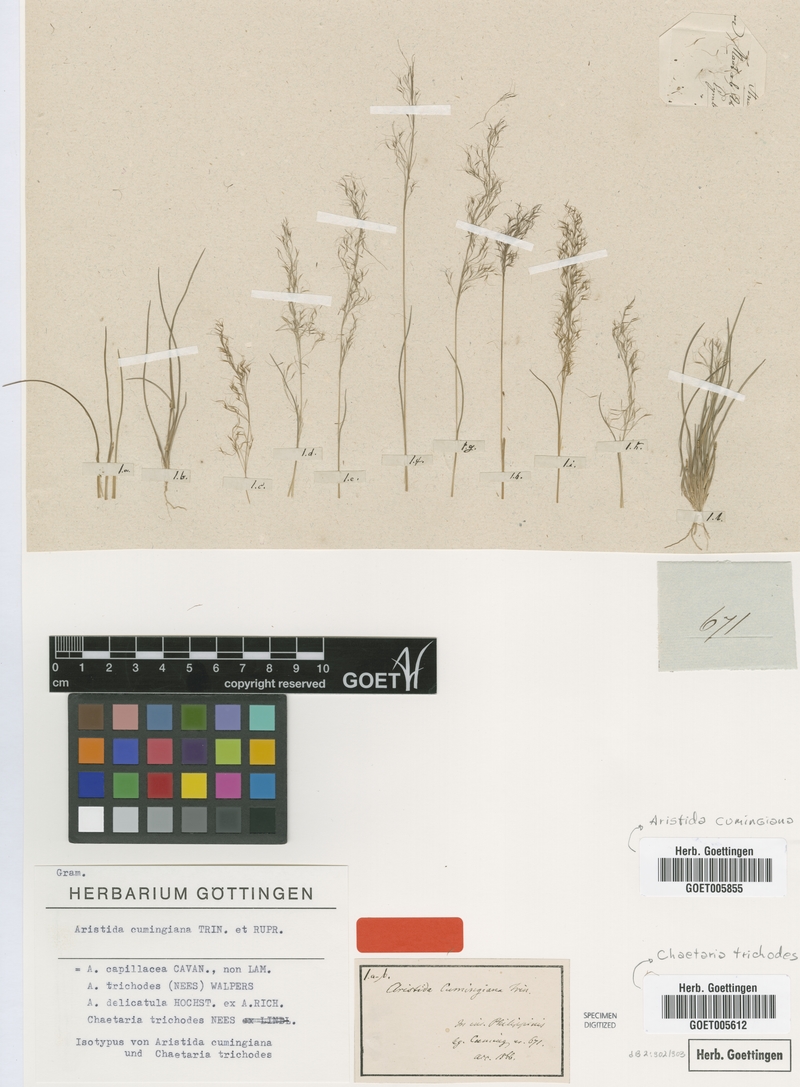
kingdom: Plantae
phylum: Tracheophyta
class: Liliopsida
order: Poales
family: Poaceae
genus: Aristida
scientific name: Aristida cumingiana
